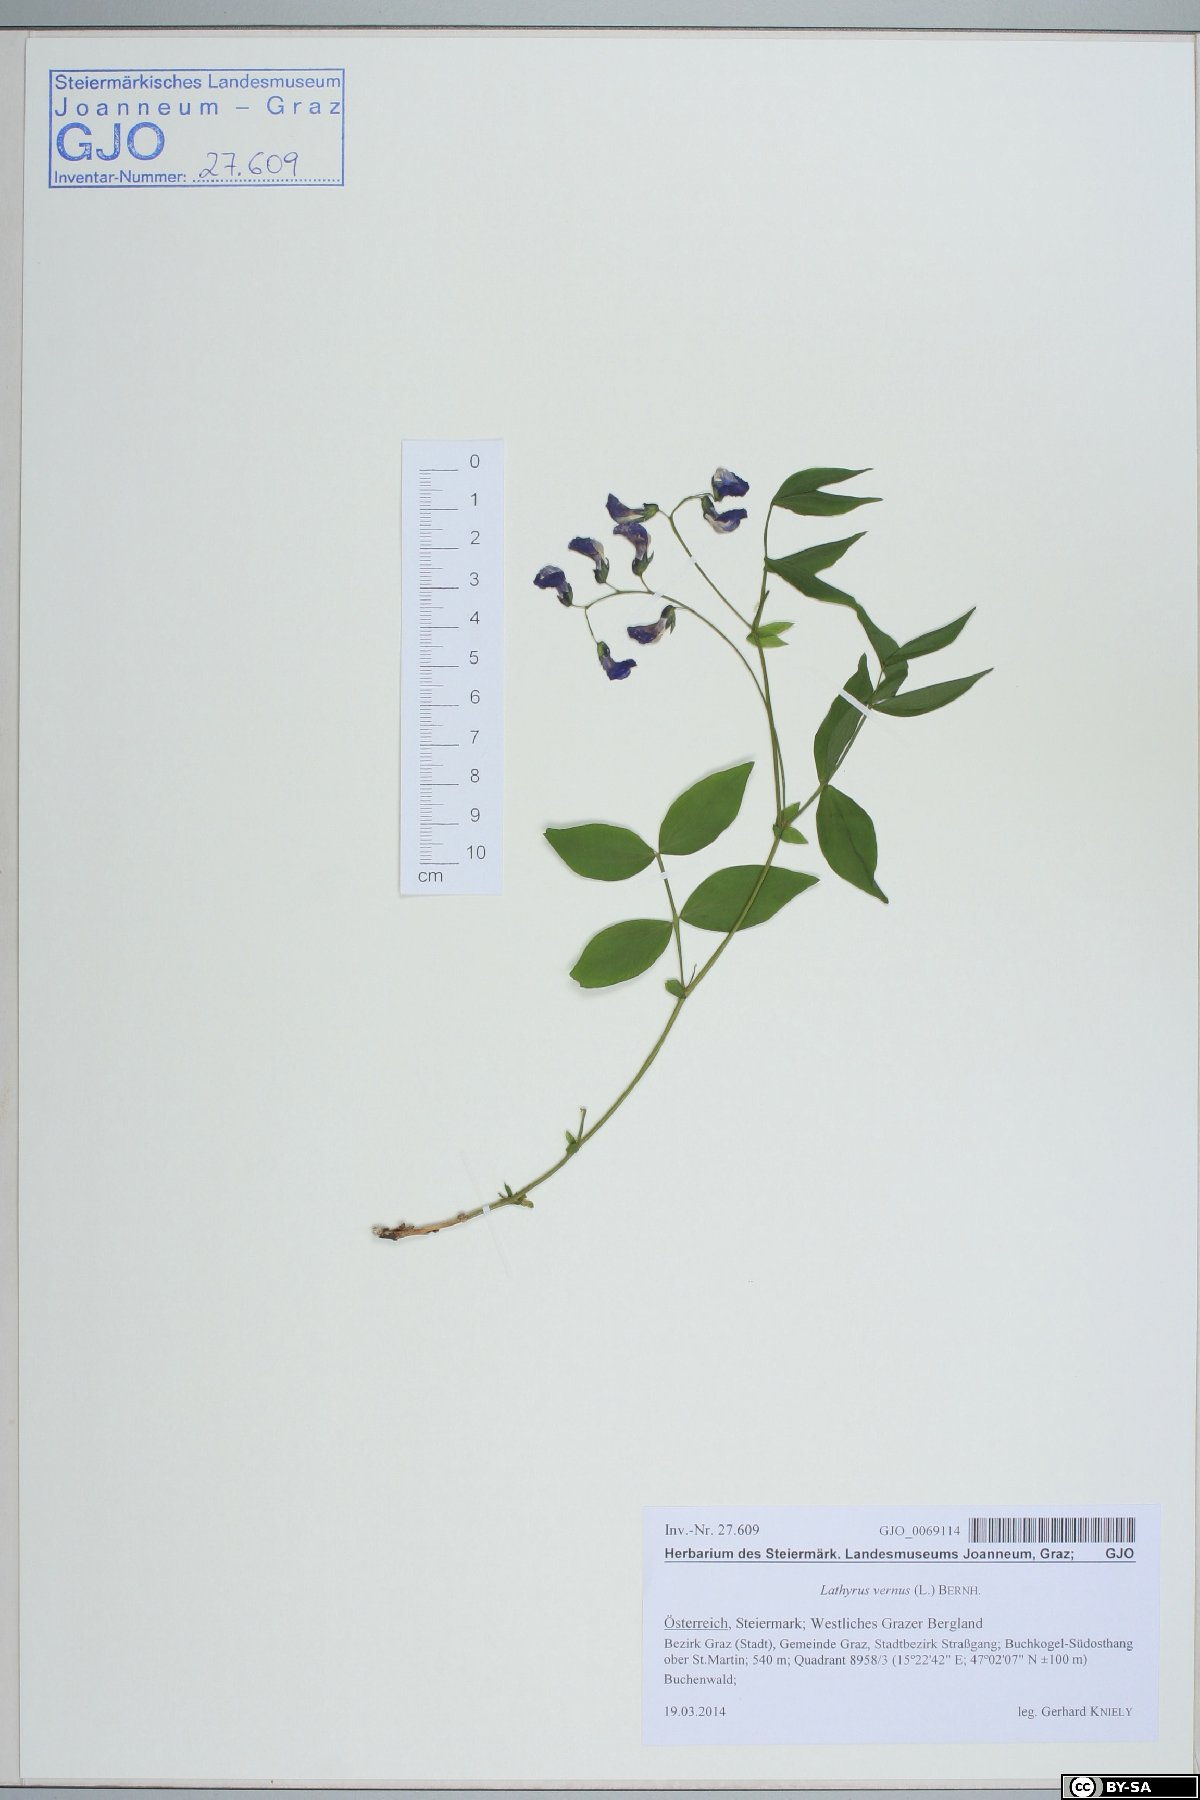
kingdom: Plantae
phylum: Tracheophyta
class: Magnoliopsida
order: Fabales
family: Fabaceae
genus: Lathyrus
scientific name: Lathyrus vernus
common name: Spring pea
